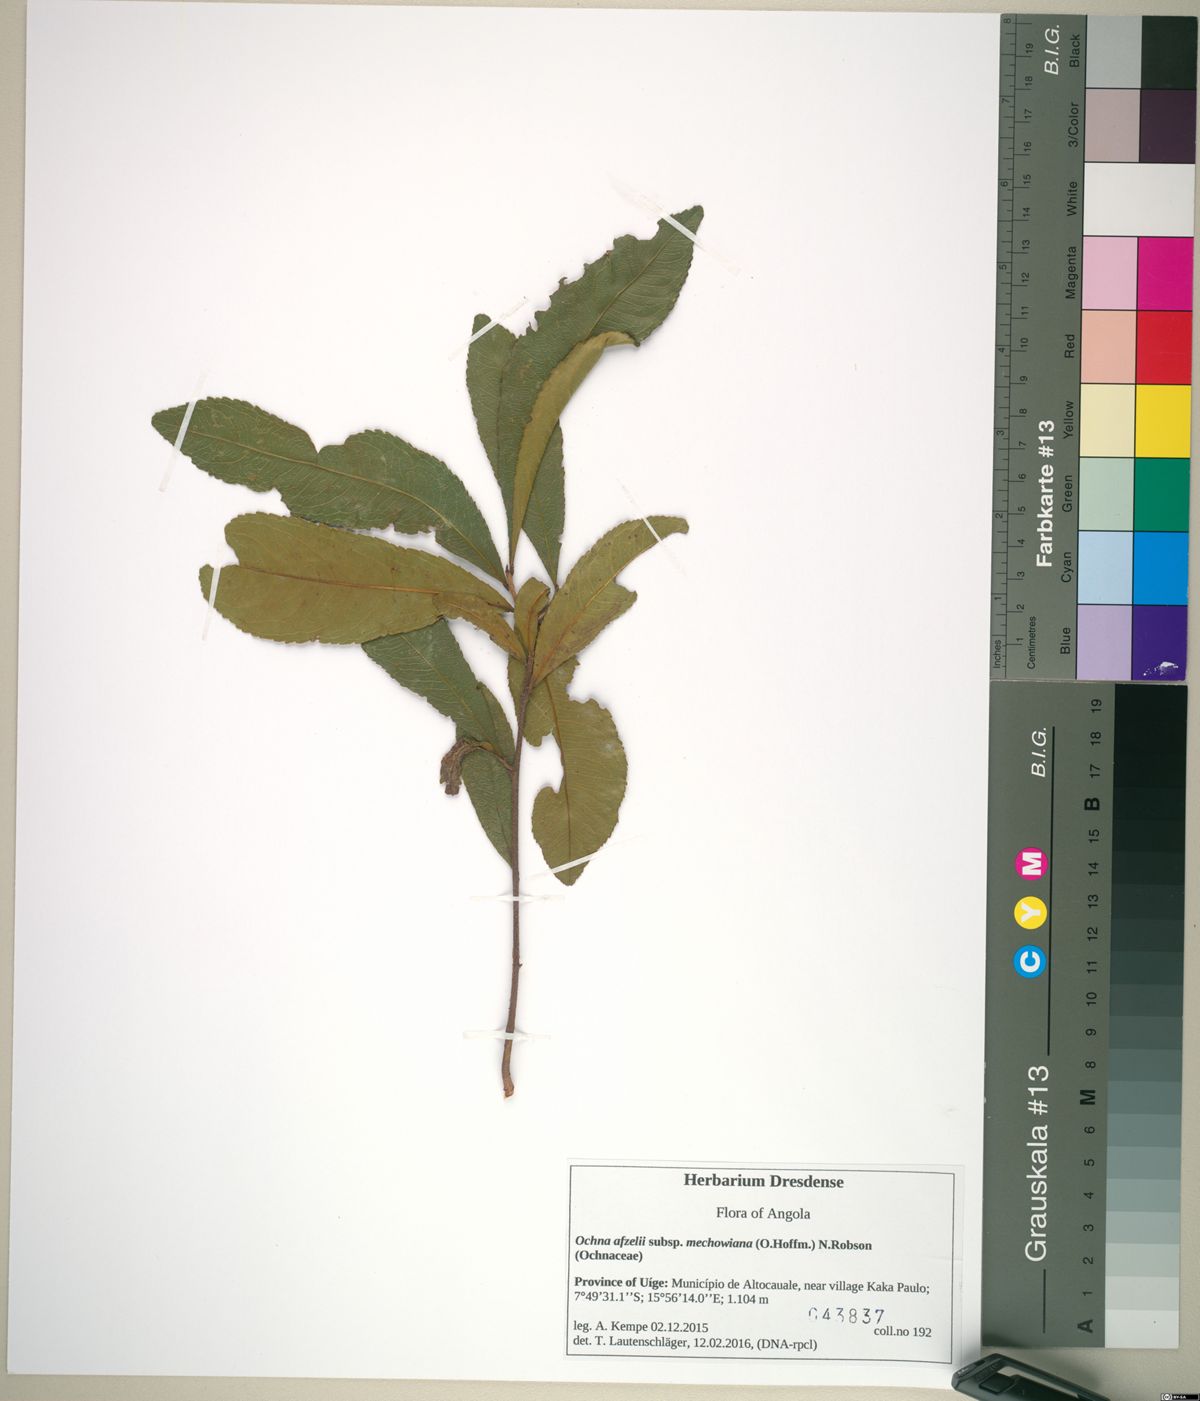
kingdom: Plantae
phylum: Tracheophyta
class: Magnoliopsida
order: Malpighiales
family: Ochnaceae
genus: Ochna
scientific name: Ochna afzelii
